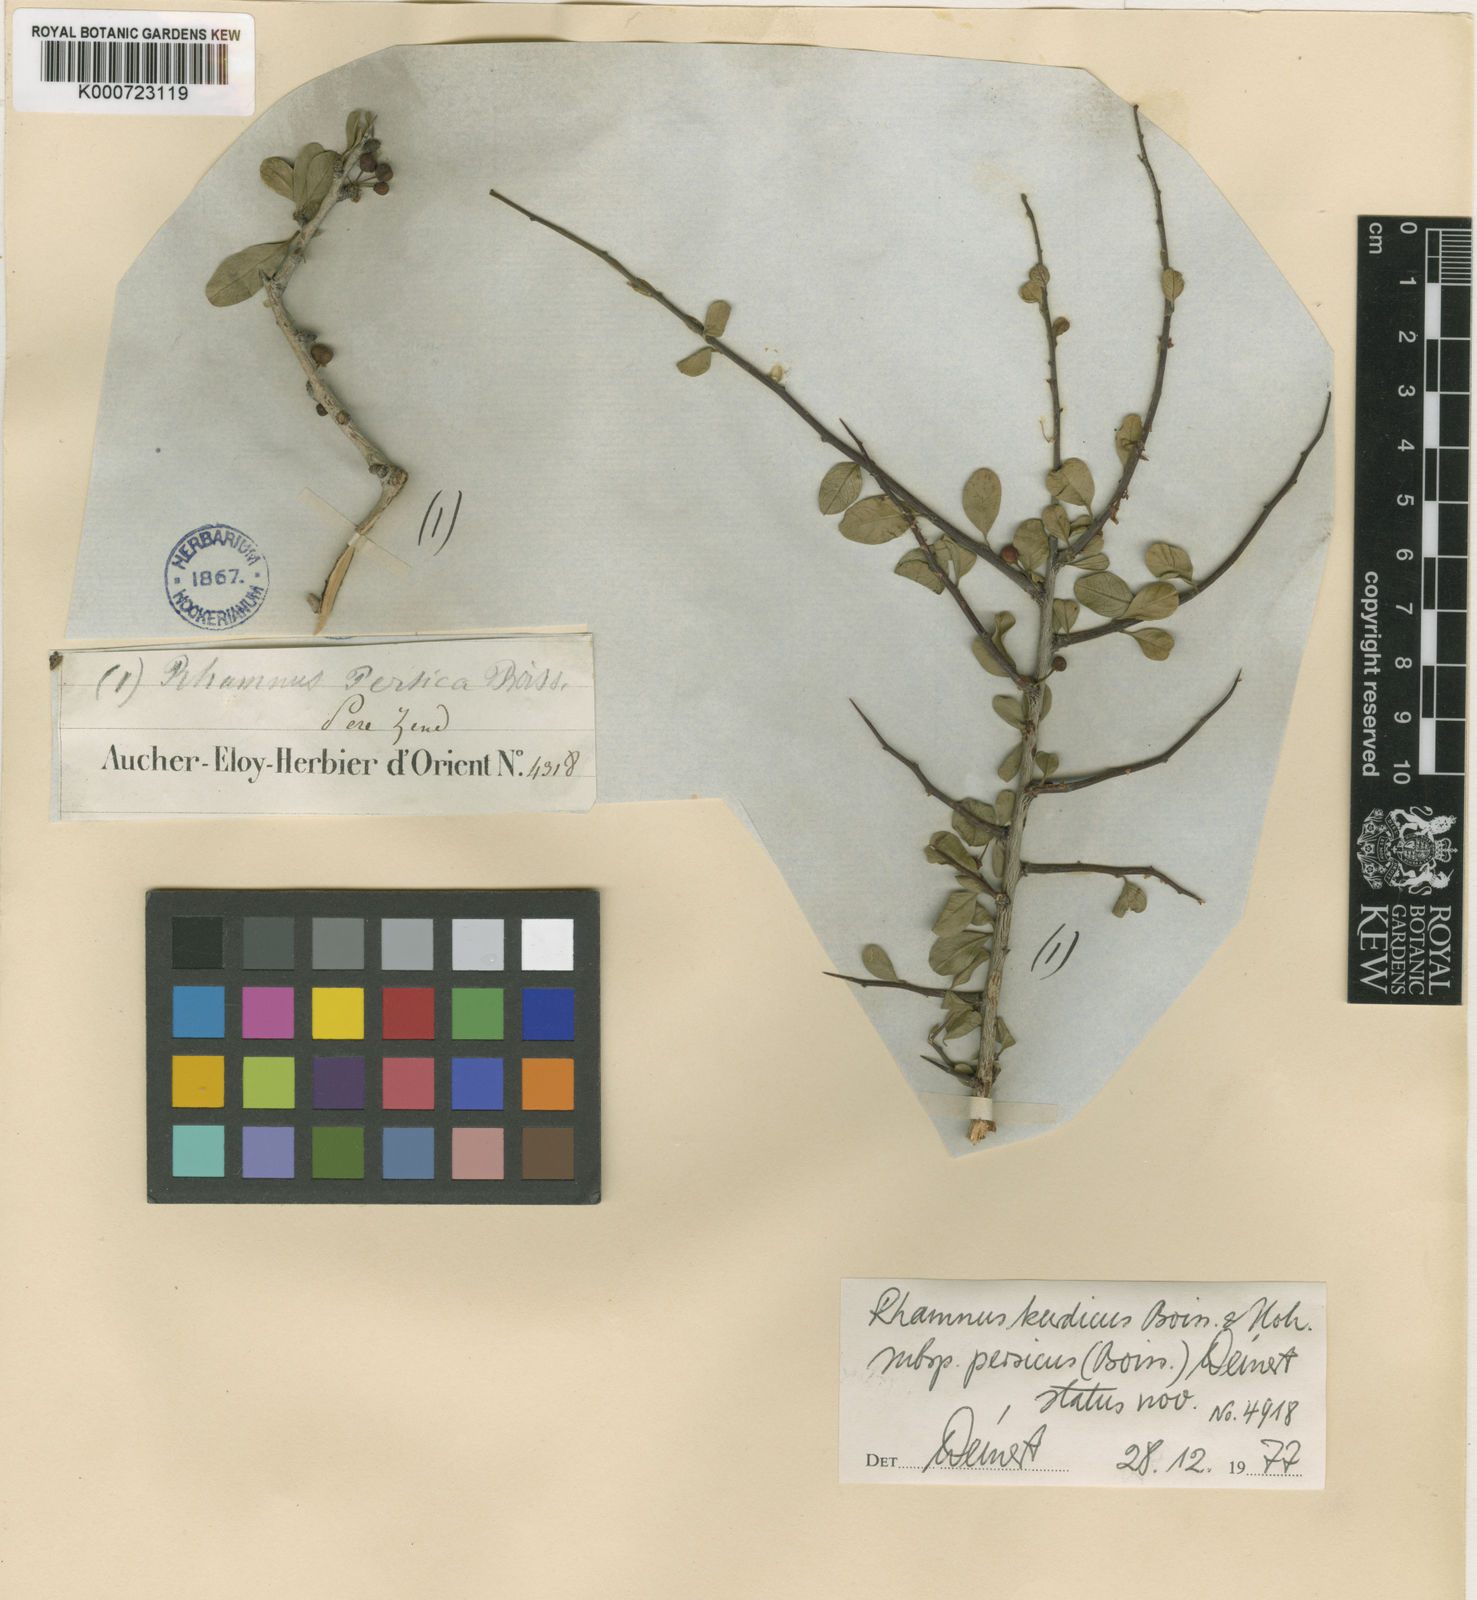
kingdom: Plantae
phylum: Tracheophyta
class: Magnoliopsida
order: Rosales
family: Rhamnaceae
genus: Rhamnus
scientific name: Rhamnus persica
